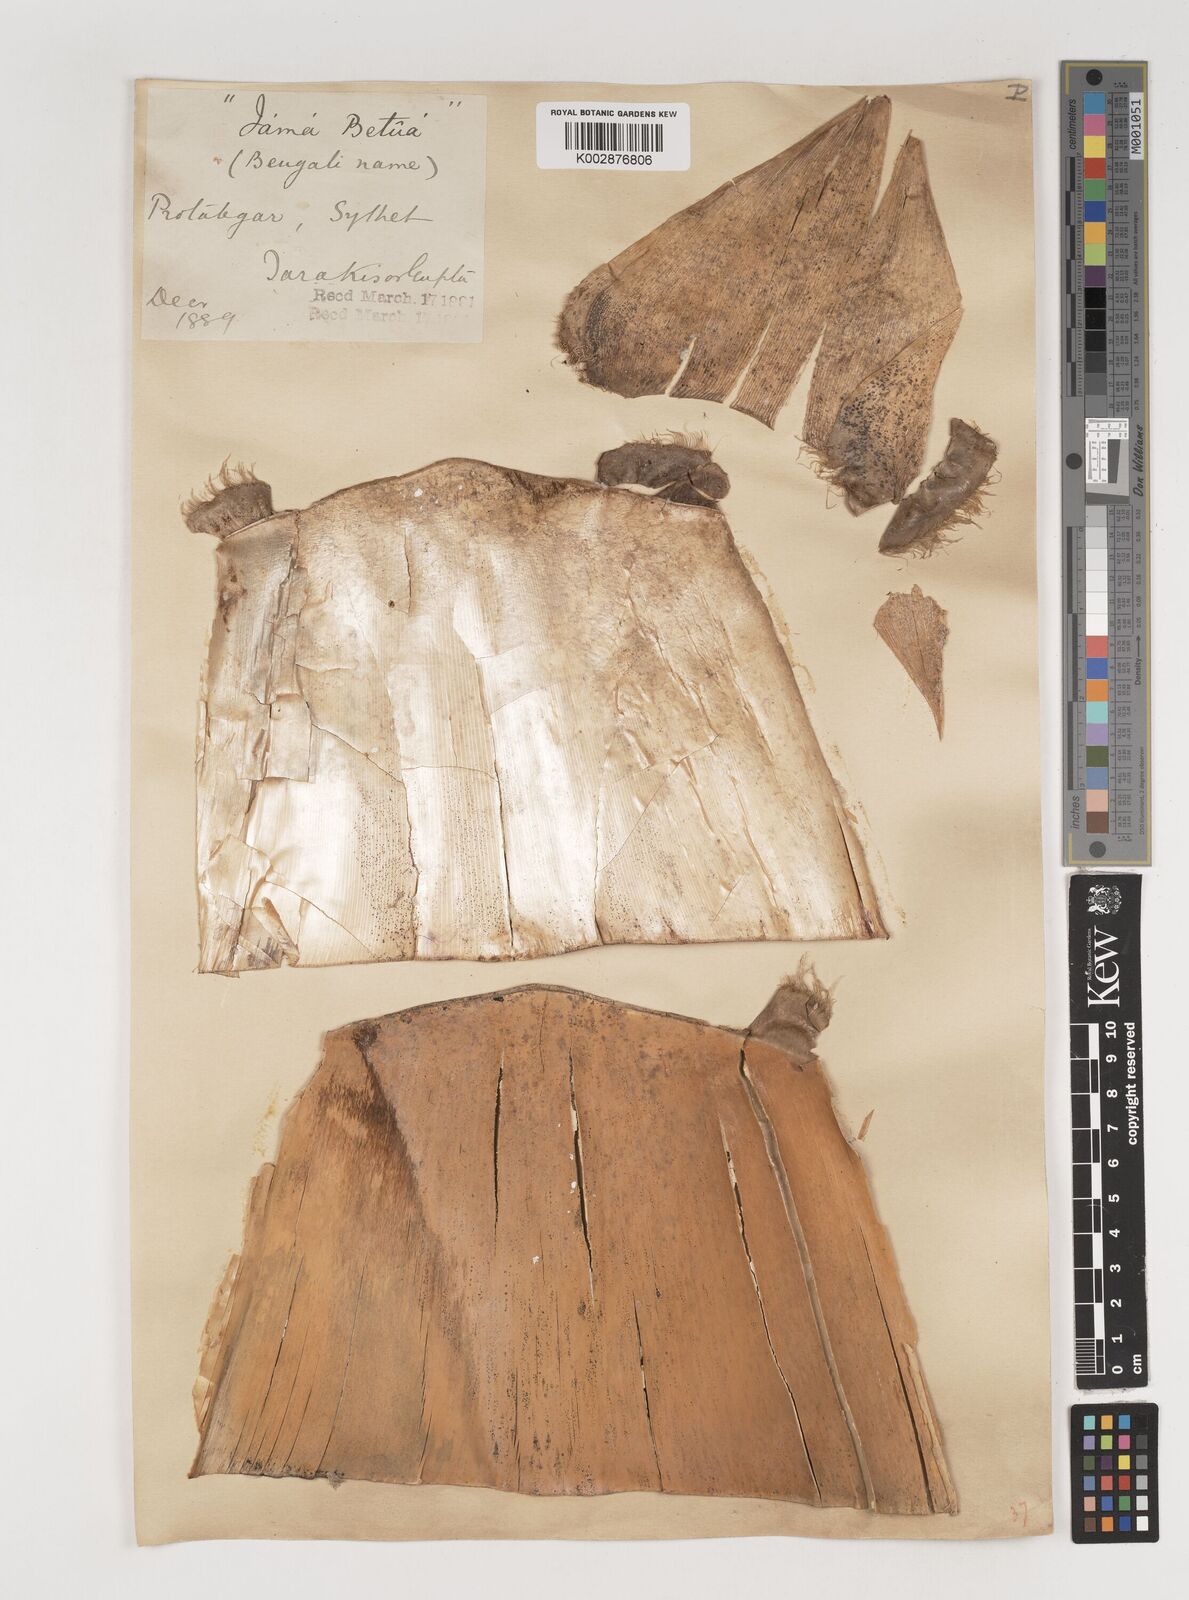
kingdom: Plantae
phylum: Tracheophyta
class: Liliopsida
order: Poales
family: Poaceae
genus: Bambusa
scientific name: Bambusa polymorpha
